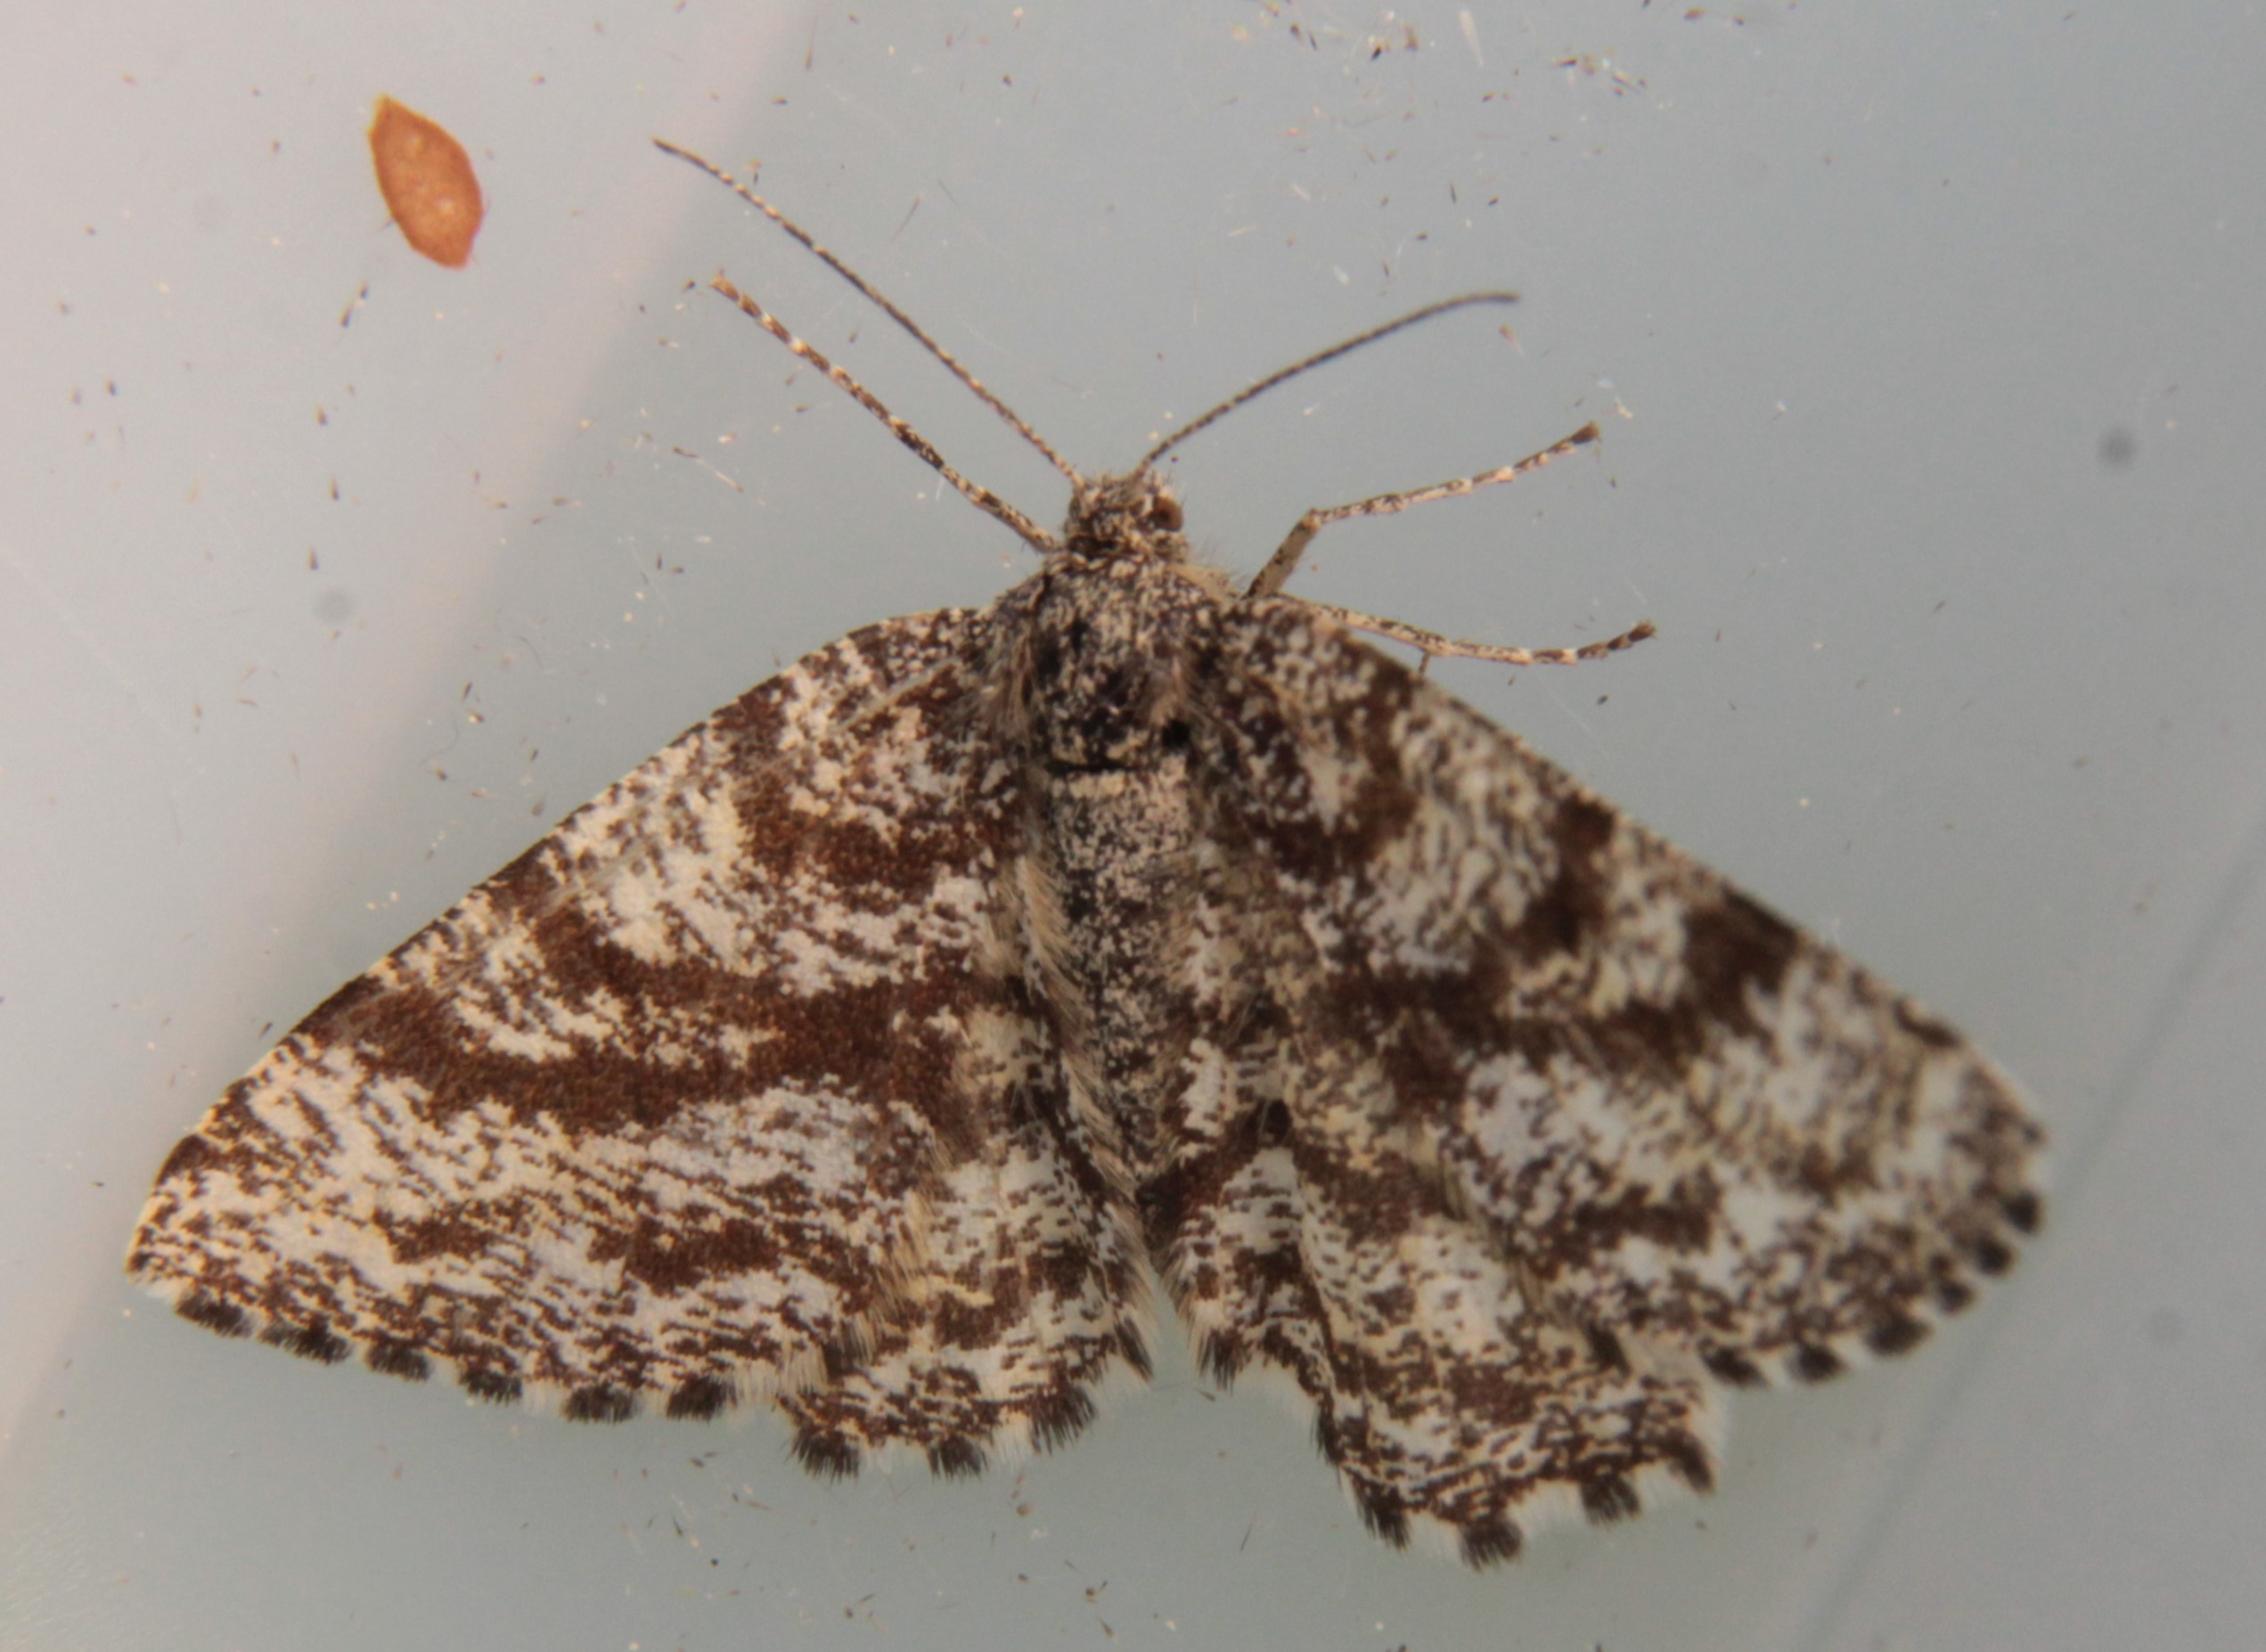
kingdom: Animalia
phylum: Arthropoda
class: Insecta
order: Lepidoptera
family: Geometridae
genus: Ematurga
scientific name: Ematurga atomaria
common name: Common heath
